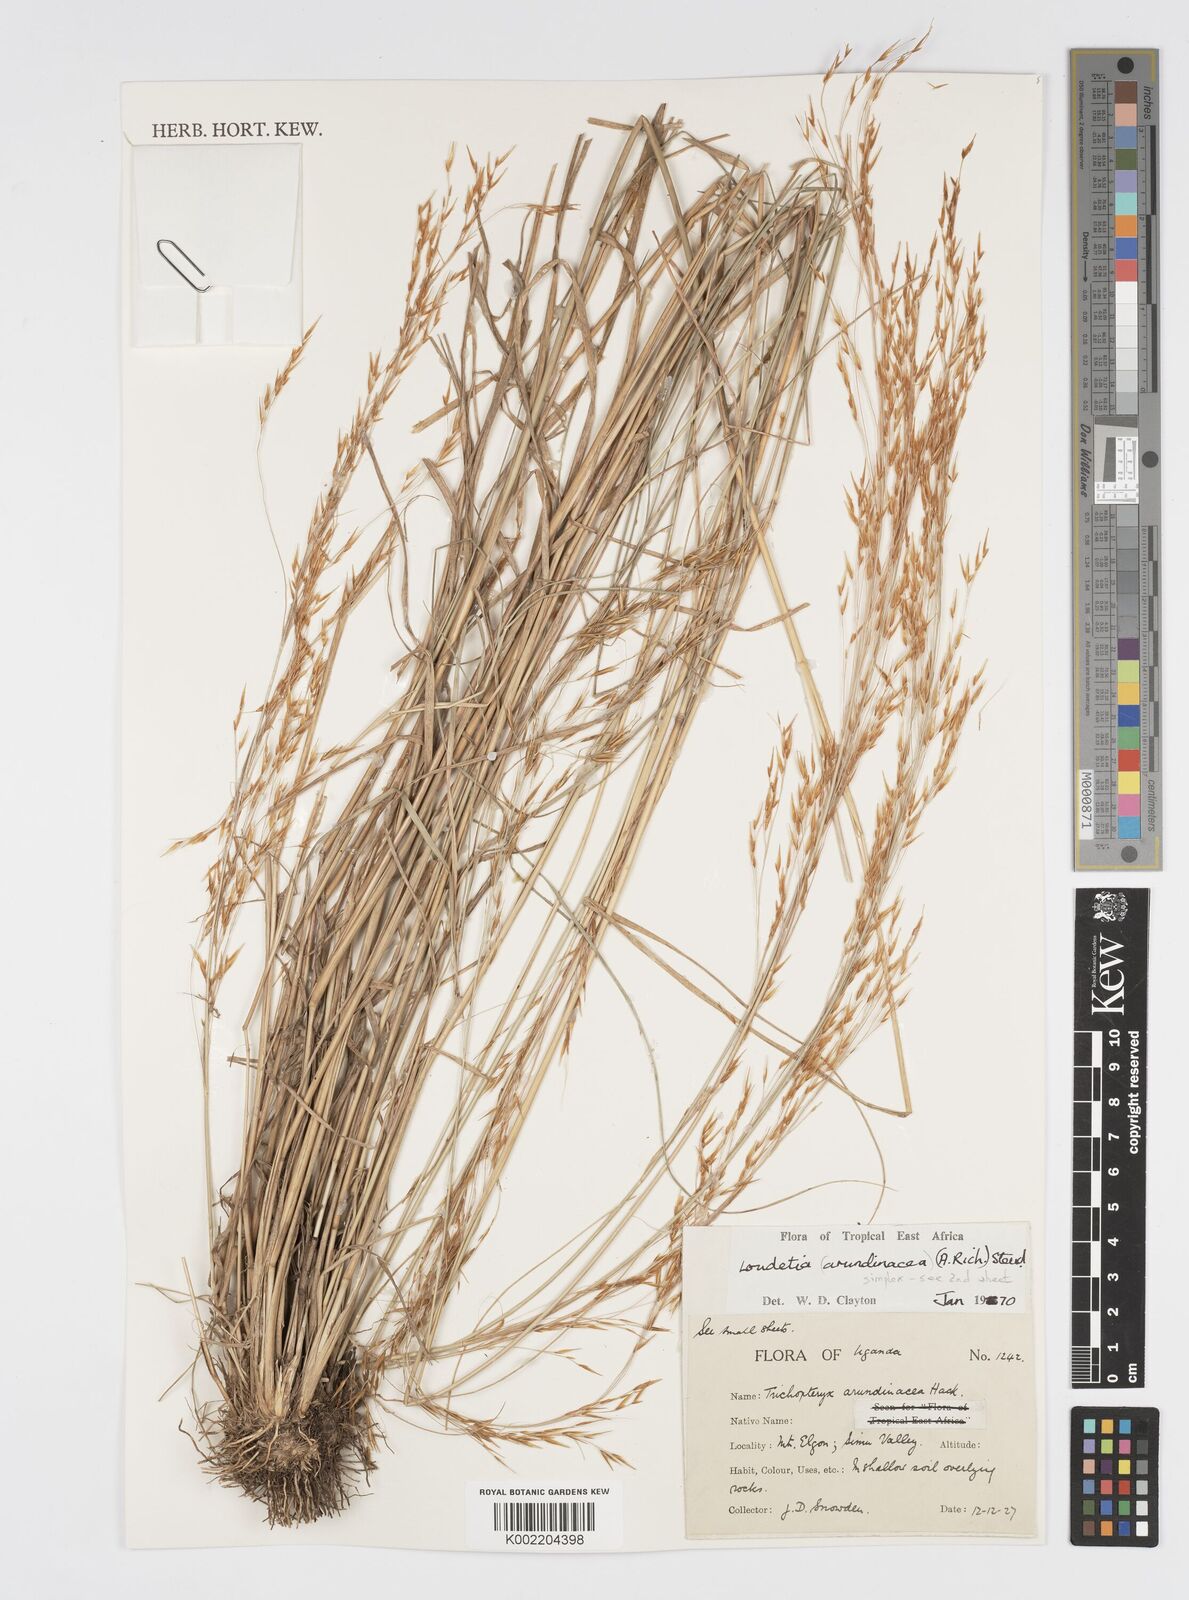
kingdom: Plantae
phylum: Tracheophyta
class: Liliopsida
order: Poales
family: Poaceae
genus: Loudetia
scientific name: Loudetia simplex
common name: Common russet grass
